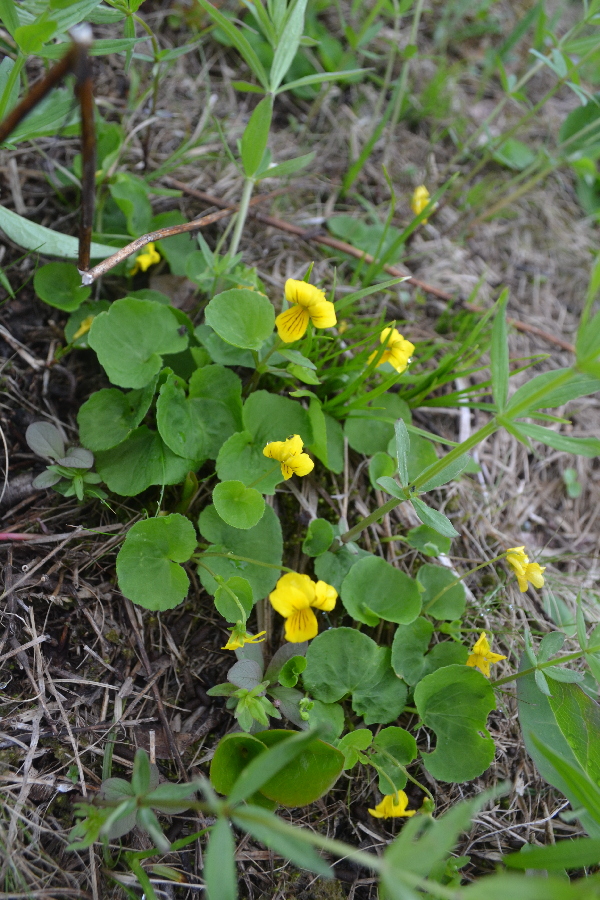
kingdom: Plantae
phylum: Tracheophyta
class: Magnoliopsida
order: Malpighiales
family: Violaceae
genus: Viola
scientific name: Viola biflora
